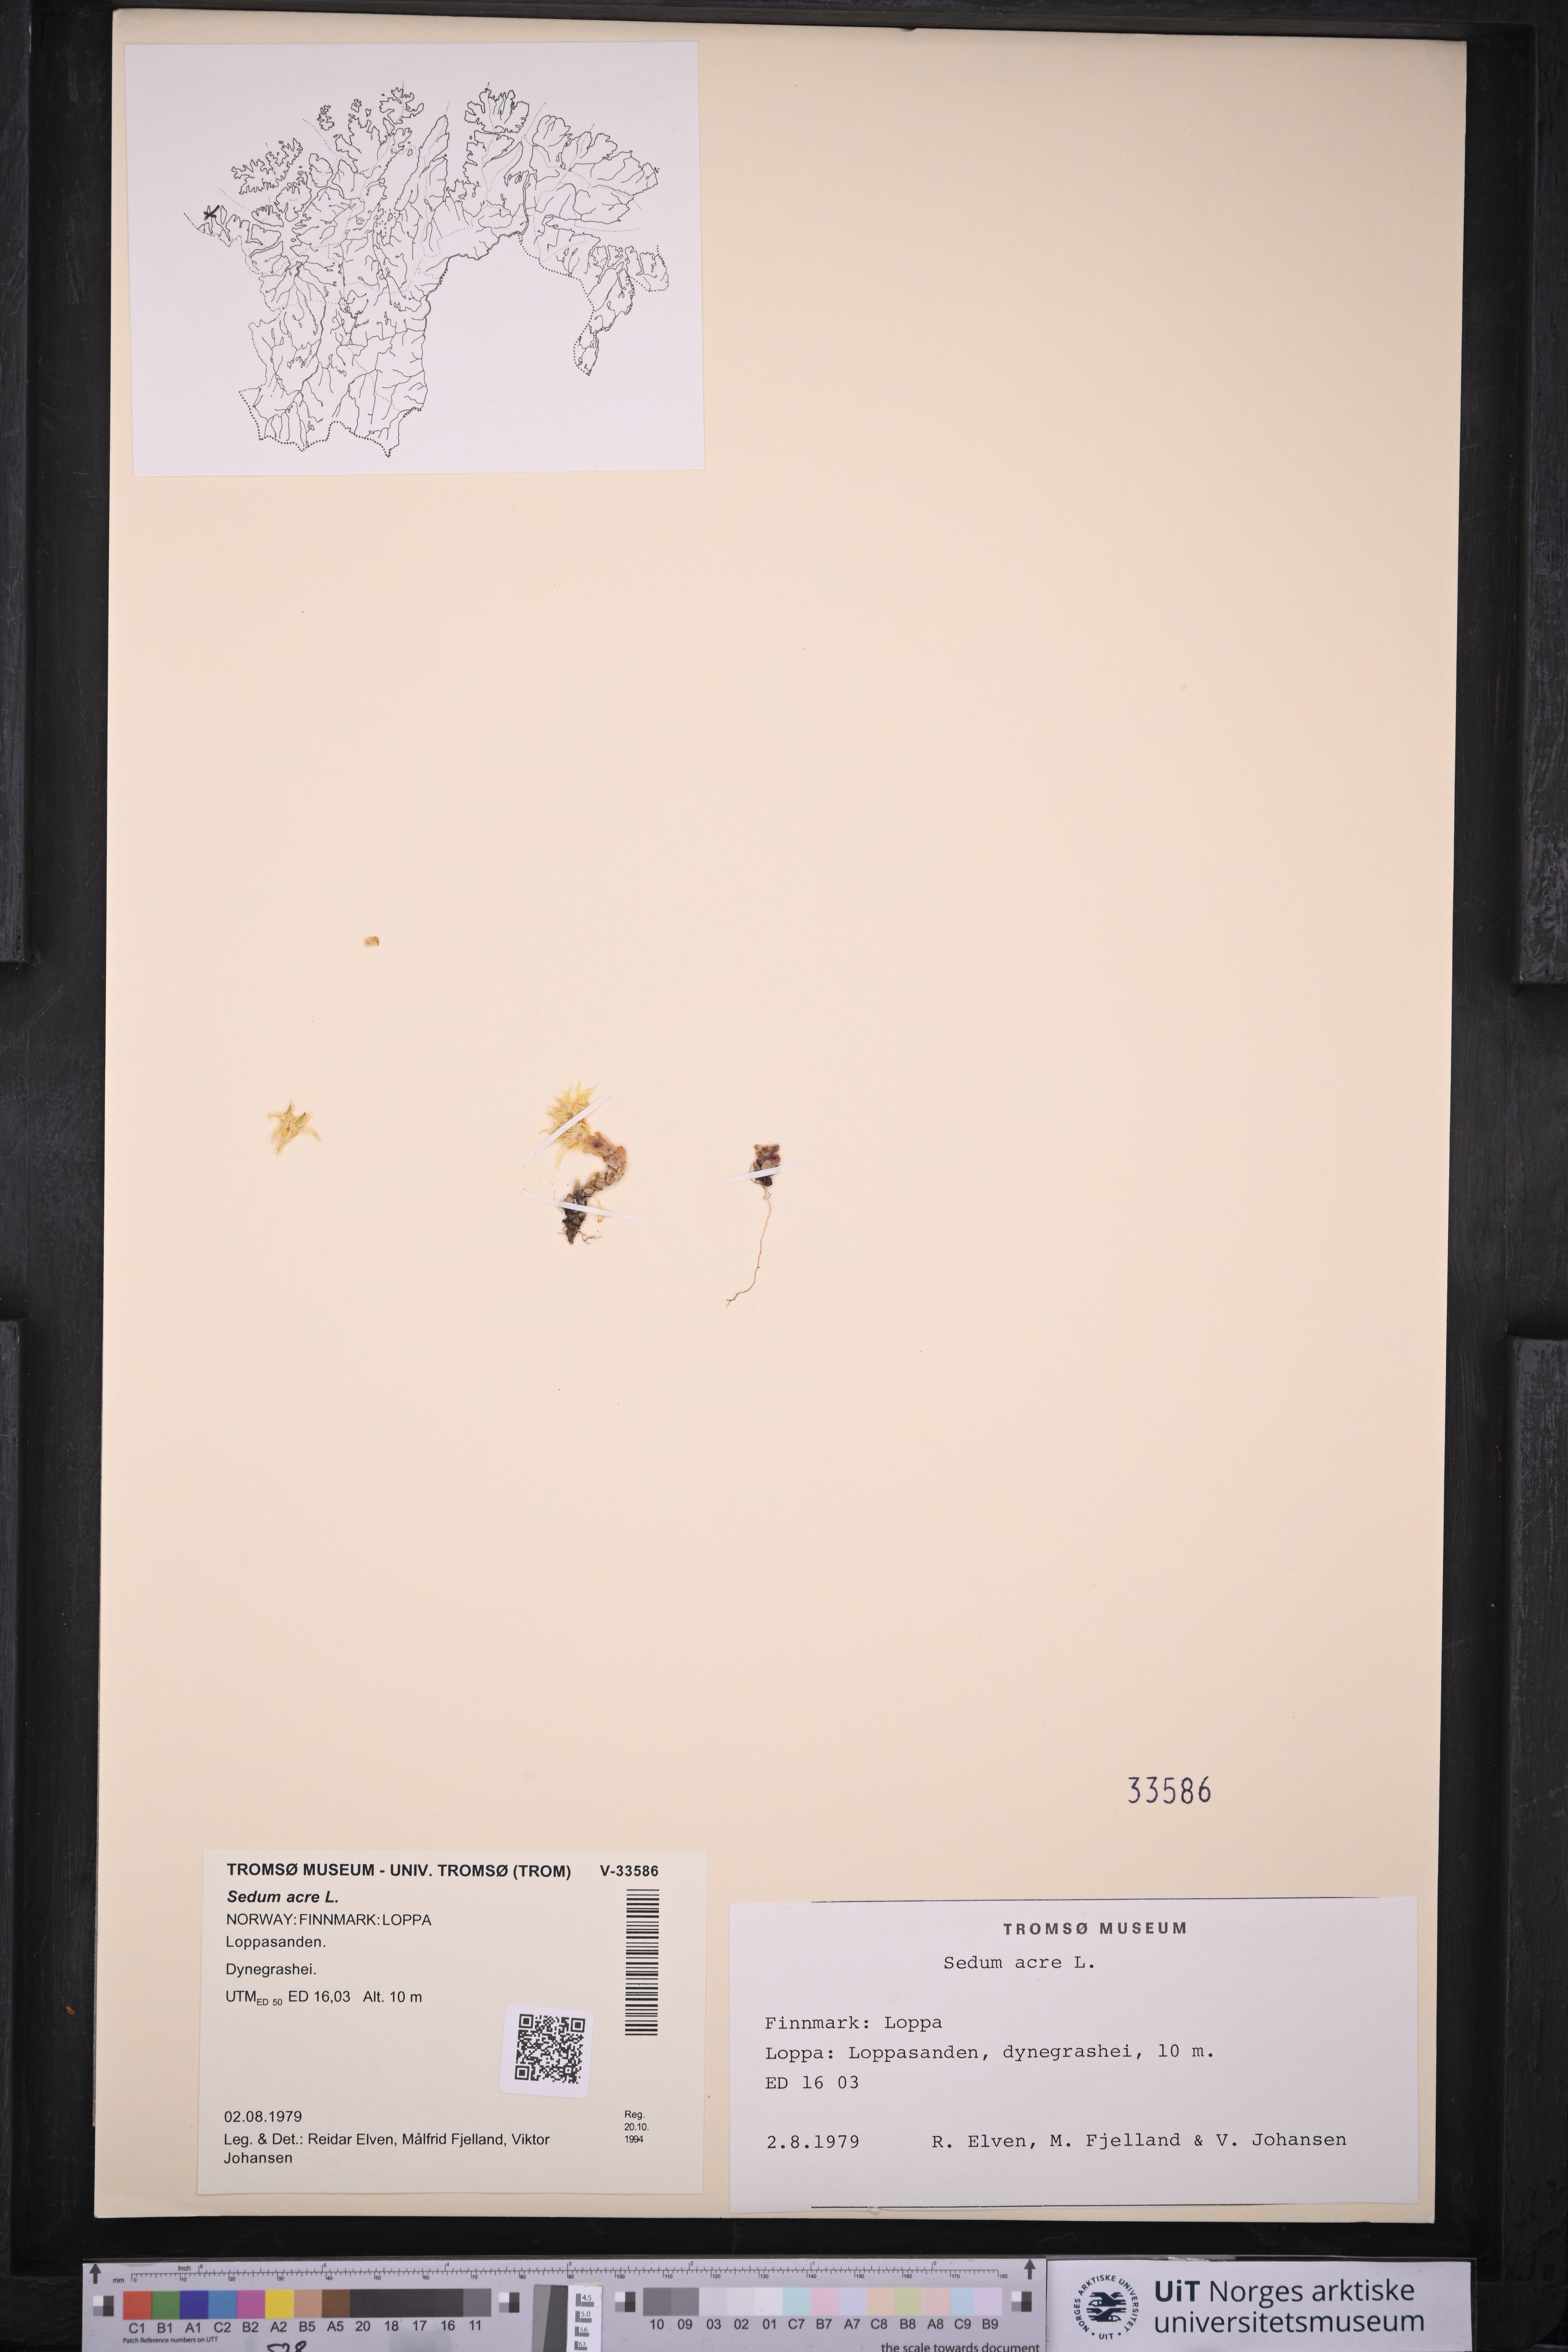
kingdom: Plantae
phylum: Tracheophyta
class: Magnoliopsida
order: Saxifragales
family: Crassulaceae
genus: Sedum
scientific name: Sedum acre
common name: Biting stonecrop
